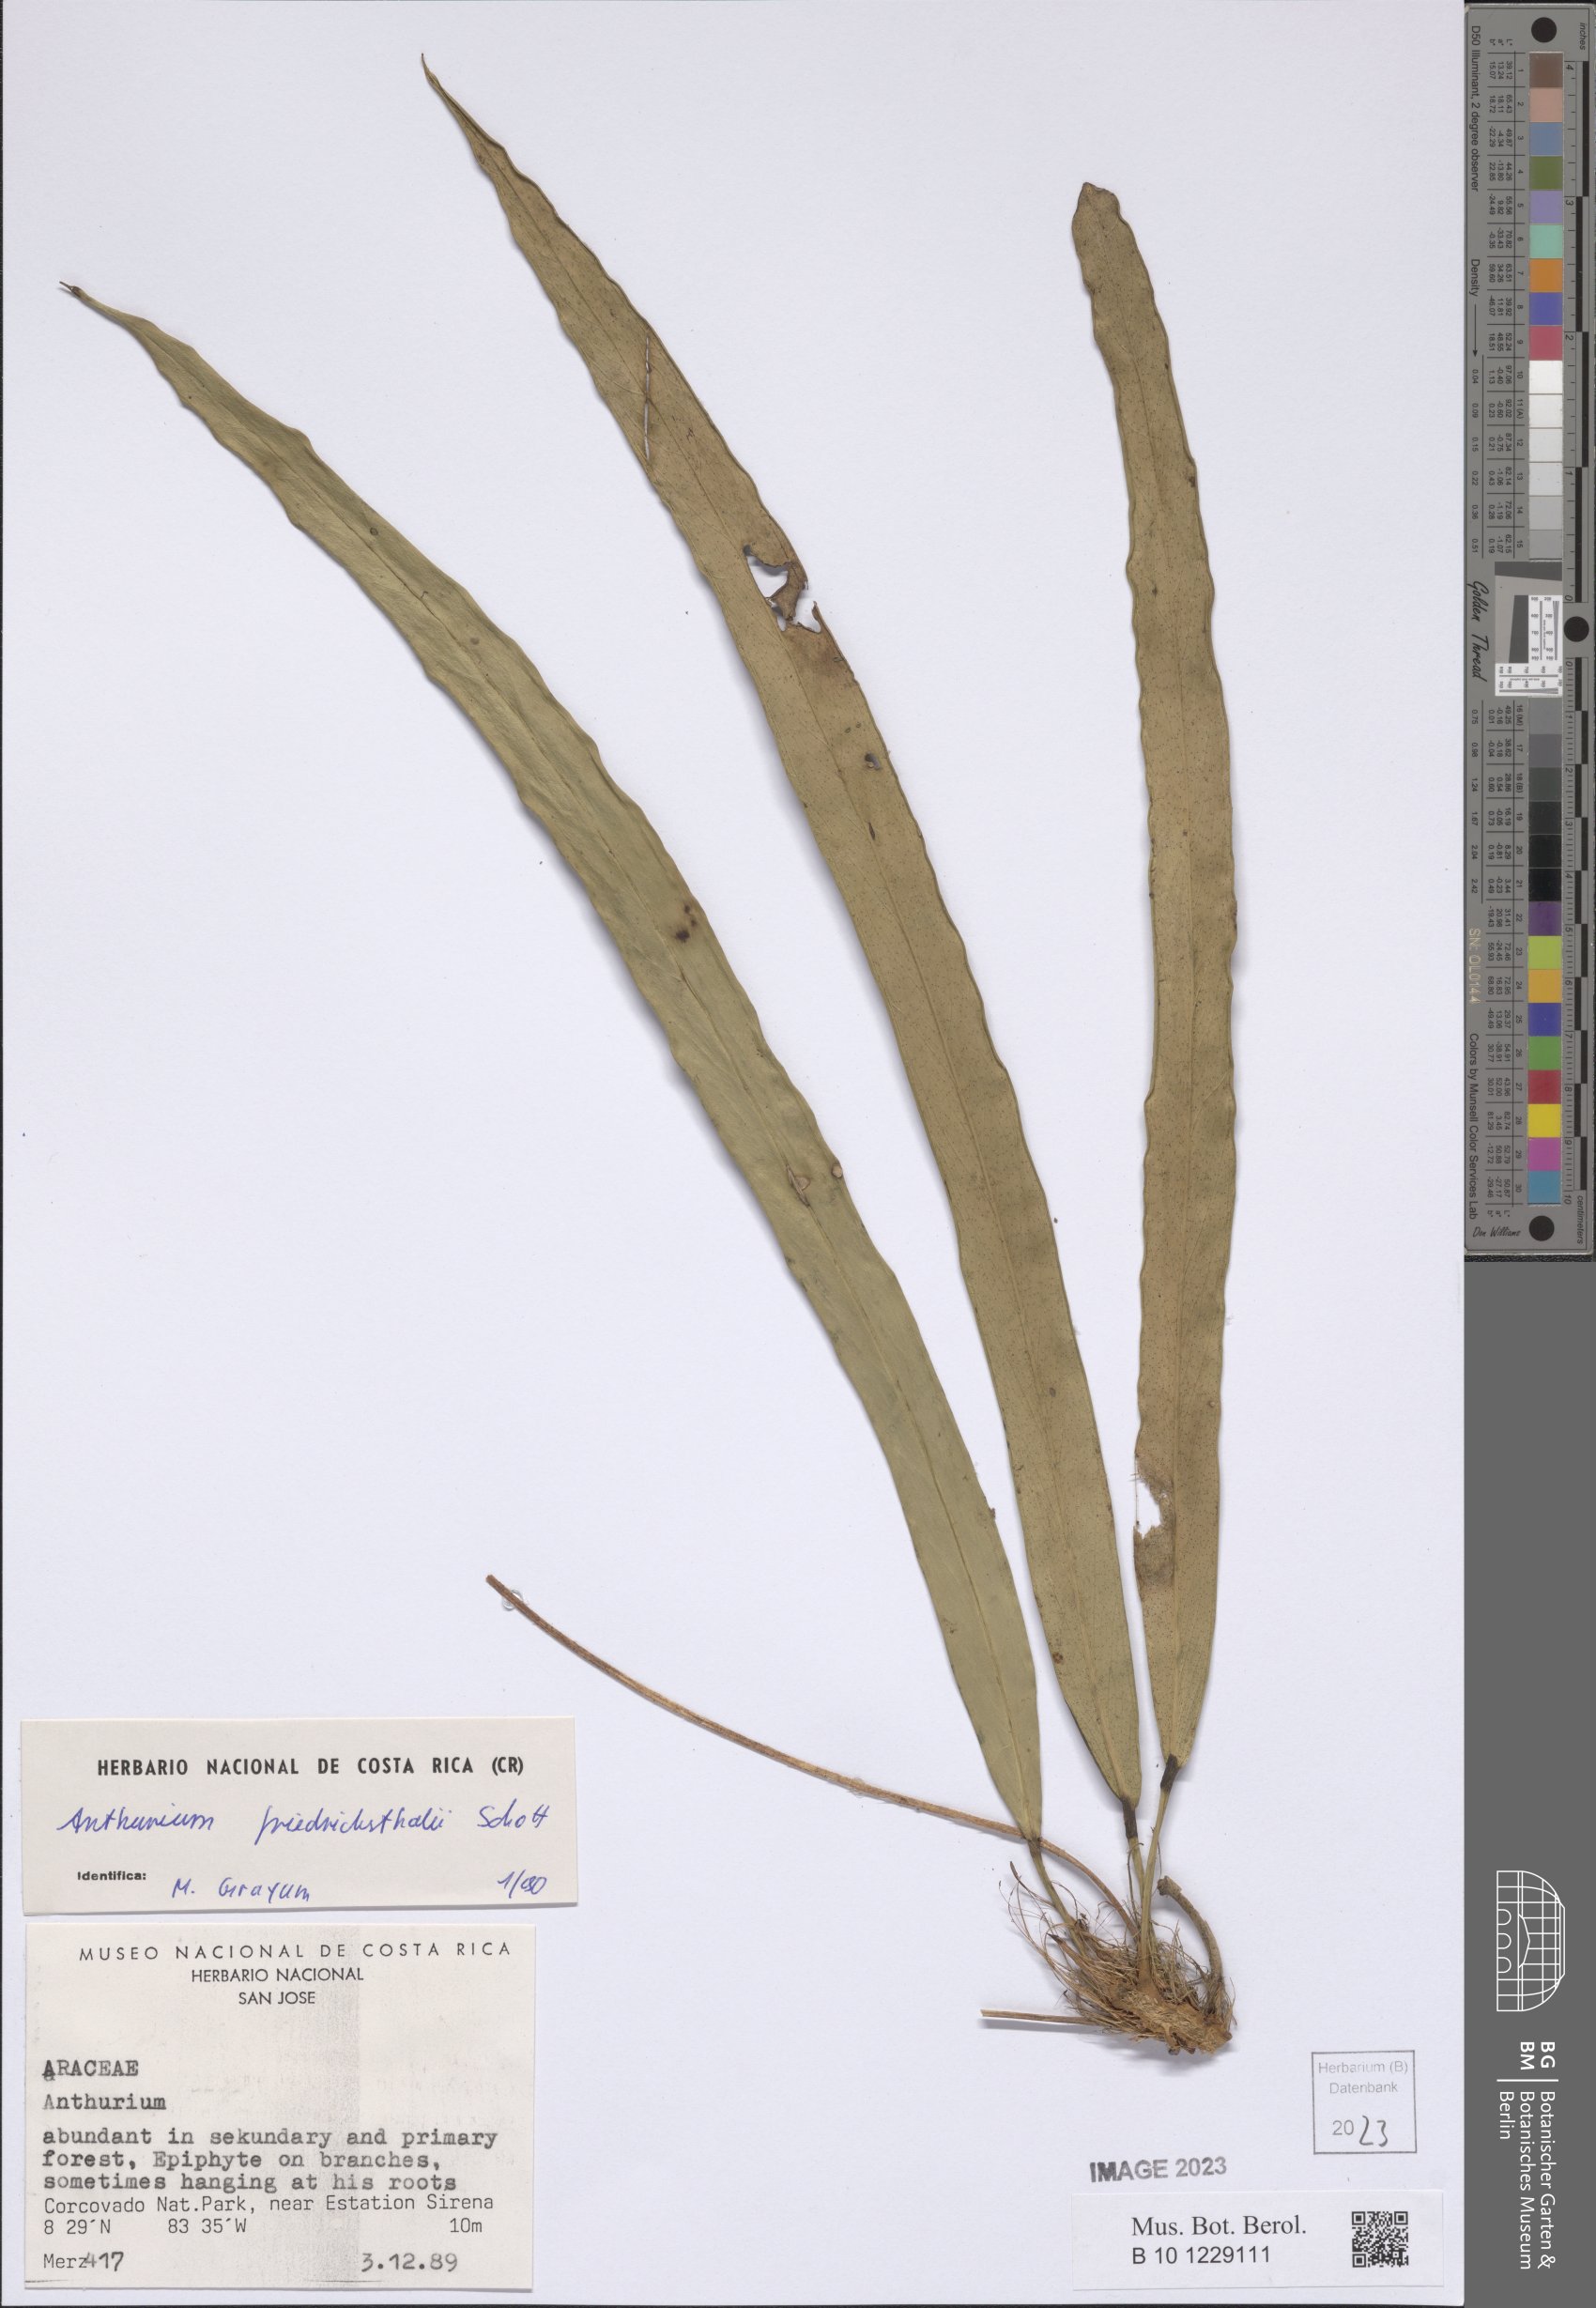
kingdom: Plantae
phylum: Tracheophyta
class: Liliopsida
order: Alismatales
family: Araceae
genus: Anthurium
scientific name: Anthurium friedrichsthalii
